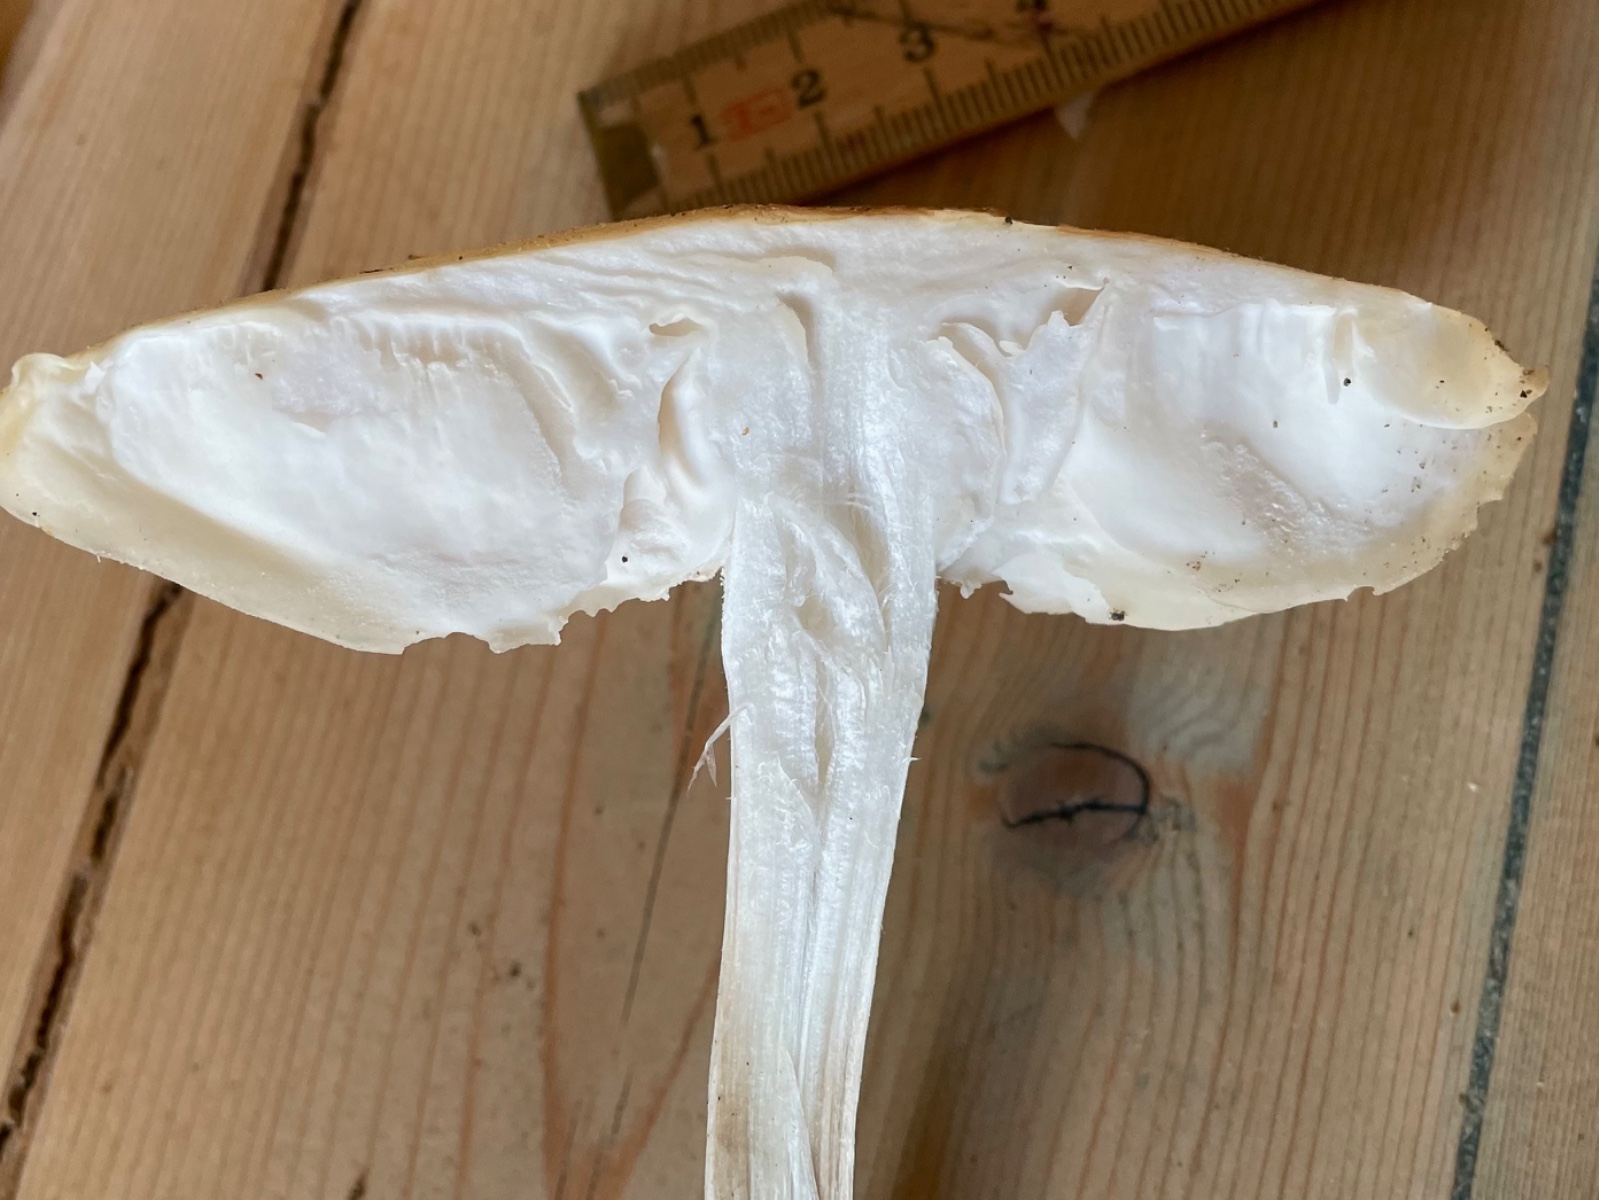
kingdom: Fungi
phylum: Basidiomycota
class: Agaricomycetes
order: Agaricales
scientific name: Agaricales
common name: champignonordenen
